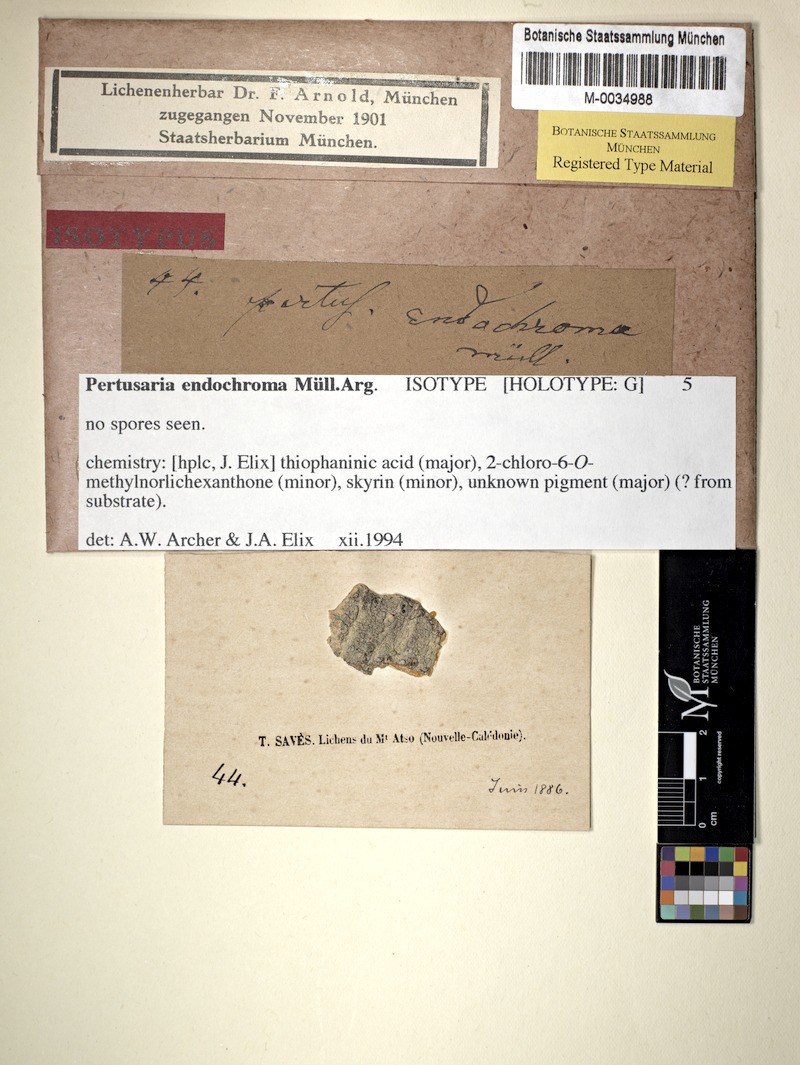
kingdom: Fungi
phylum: Ascomycota
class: Lecanoromycetes
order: Pertusariales
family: Pertusariaceae
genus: Pertusaria
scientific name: Pertusaria endochroma
